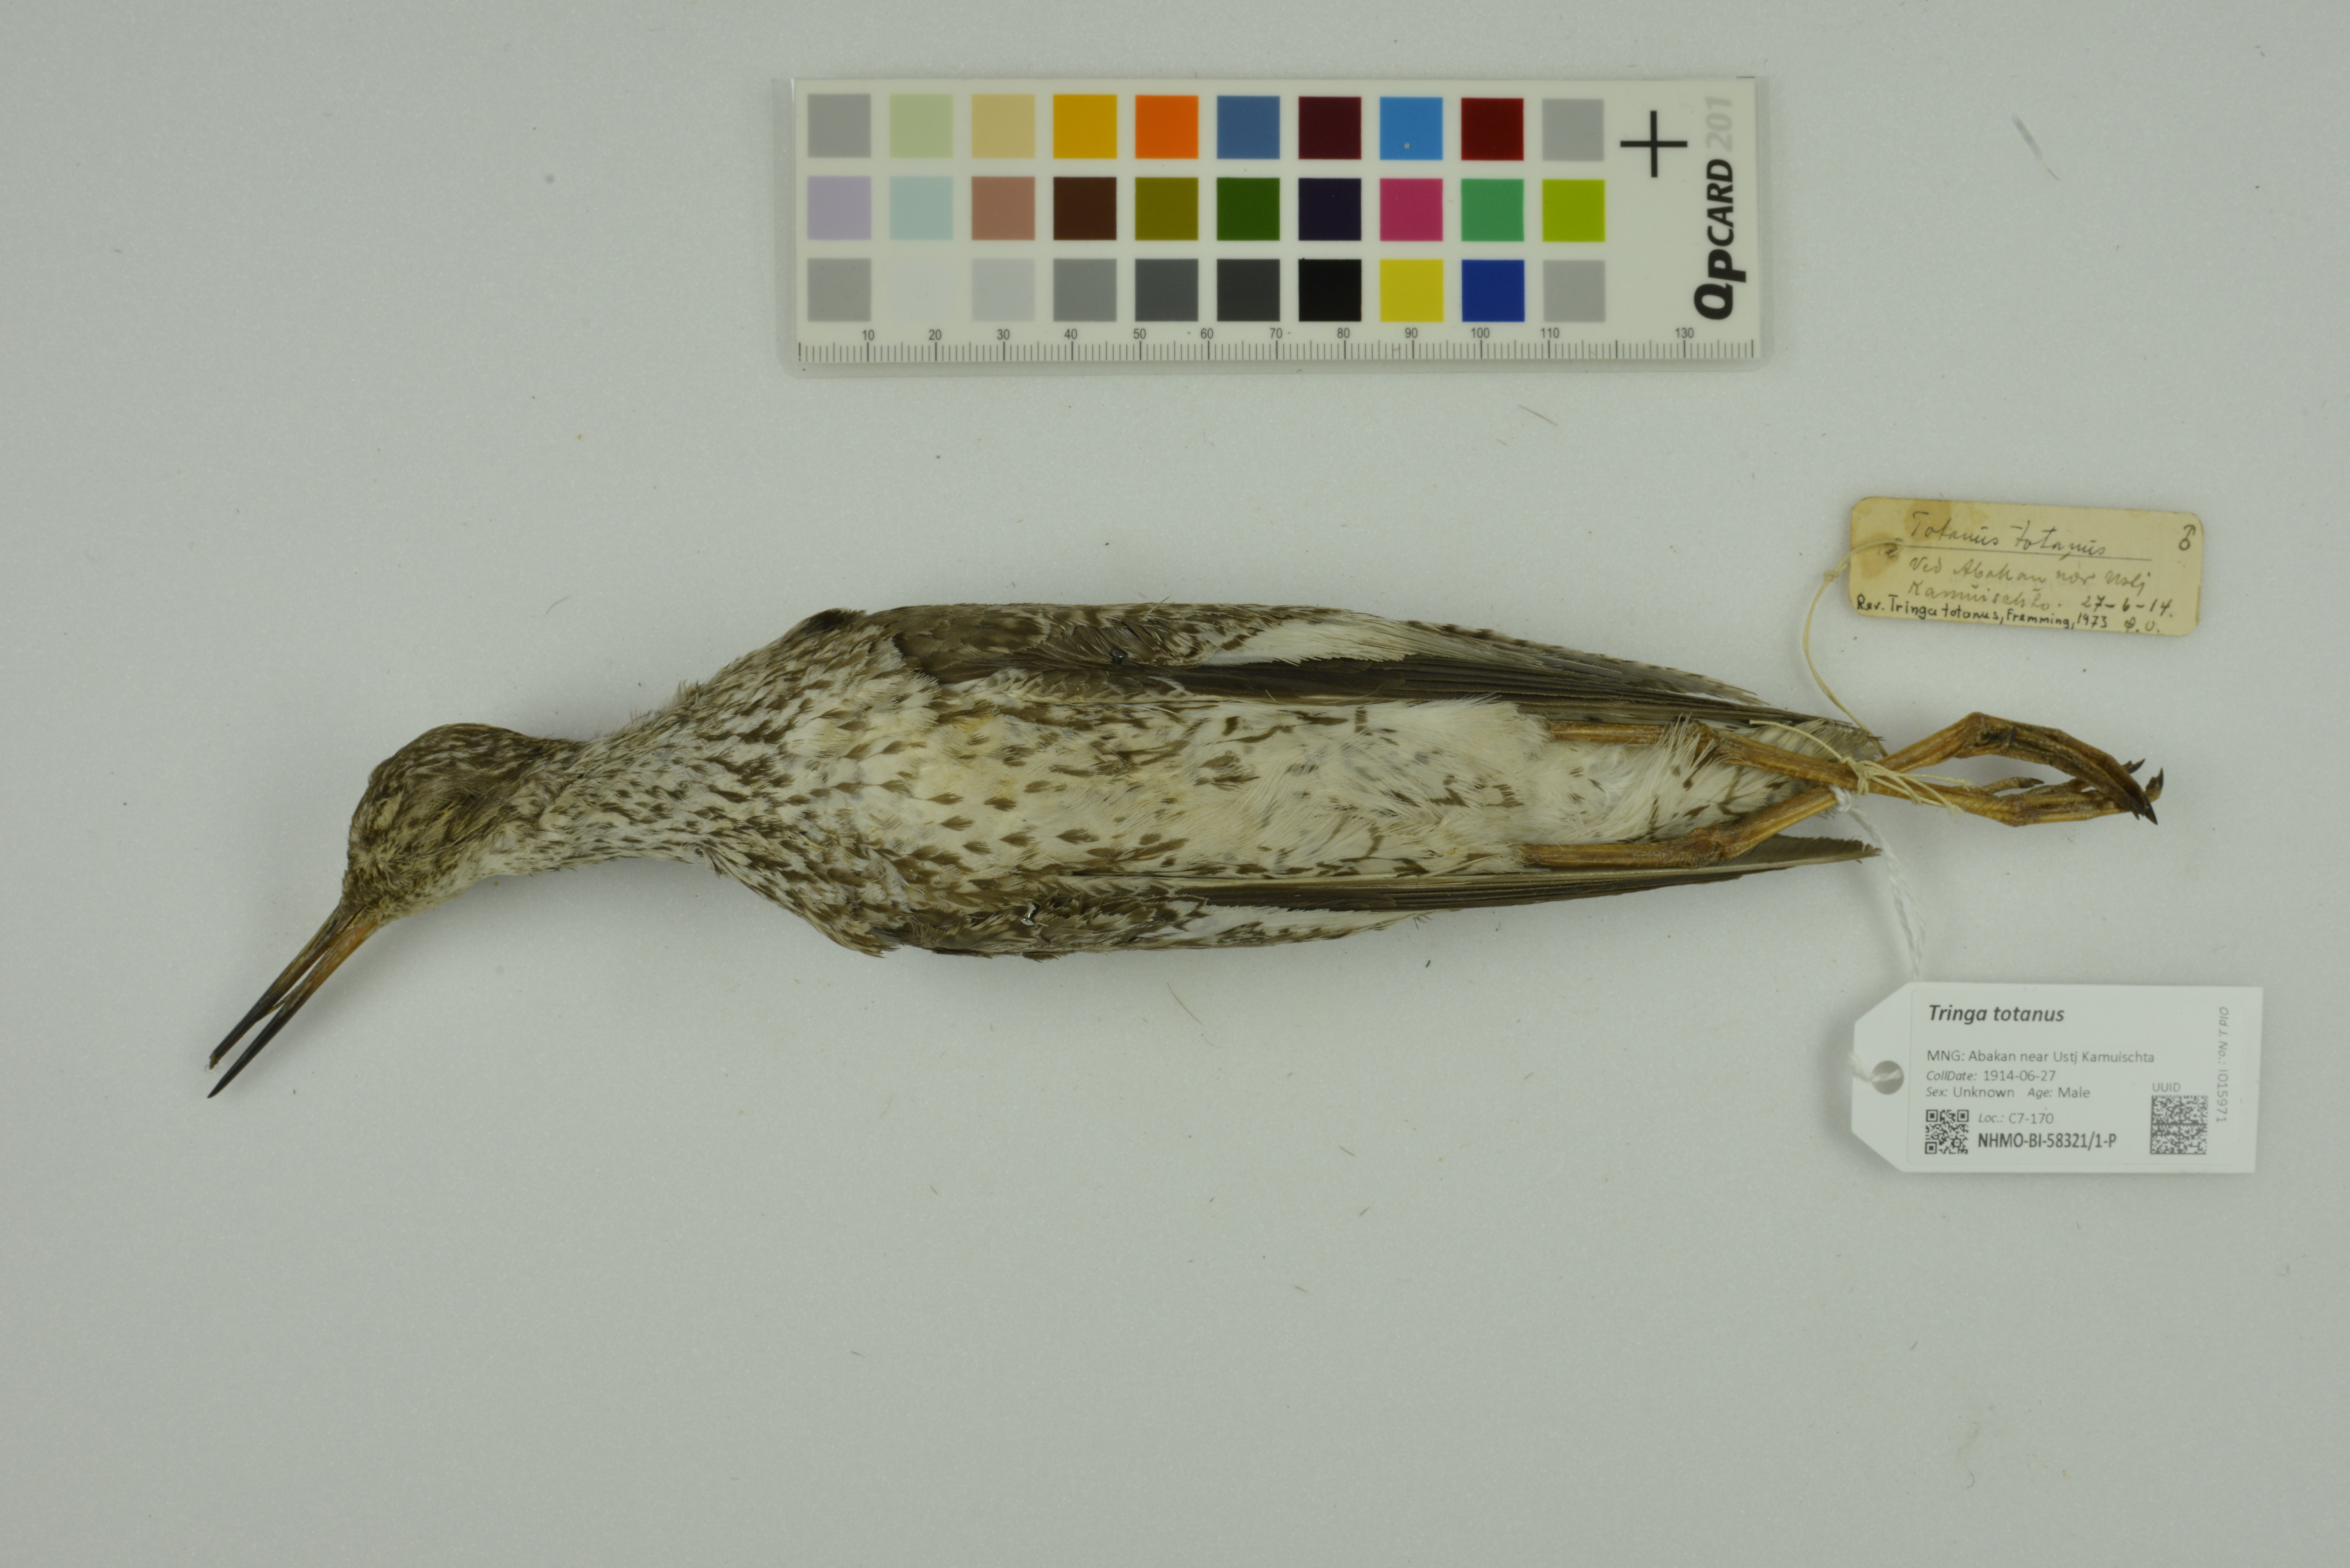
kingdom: Animalia
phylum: Chordata
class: Aves
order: Charadriiformes
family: Scolopacidae
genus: Tringa
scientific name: Tringa totanus
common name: Common redshank
